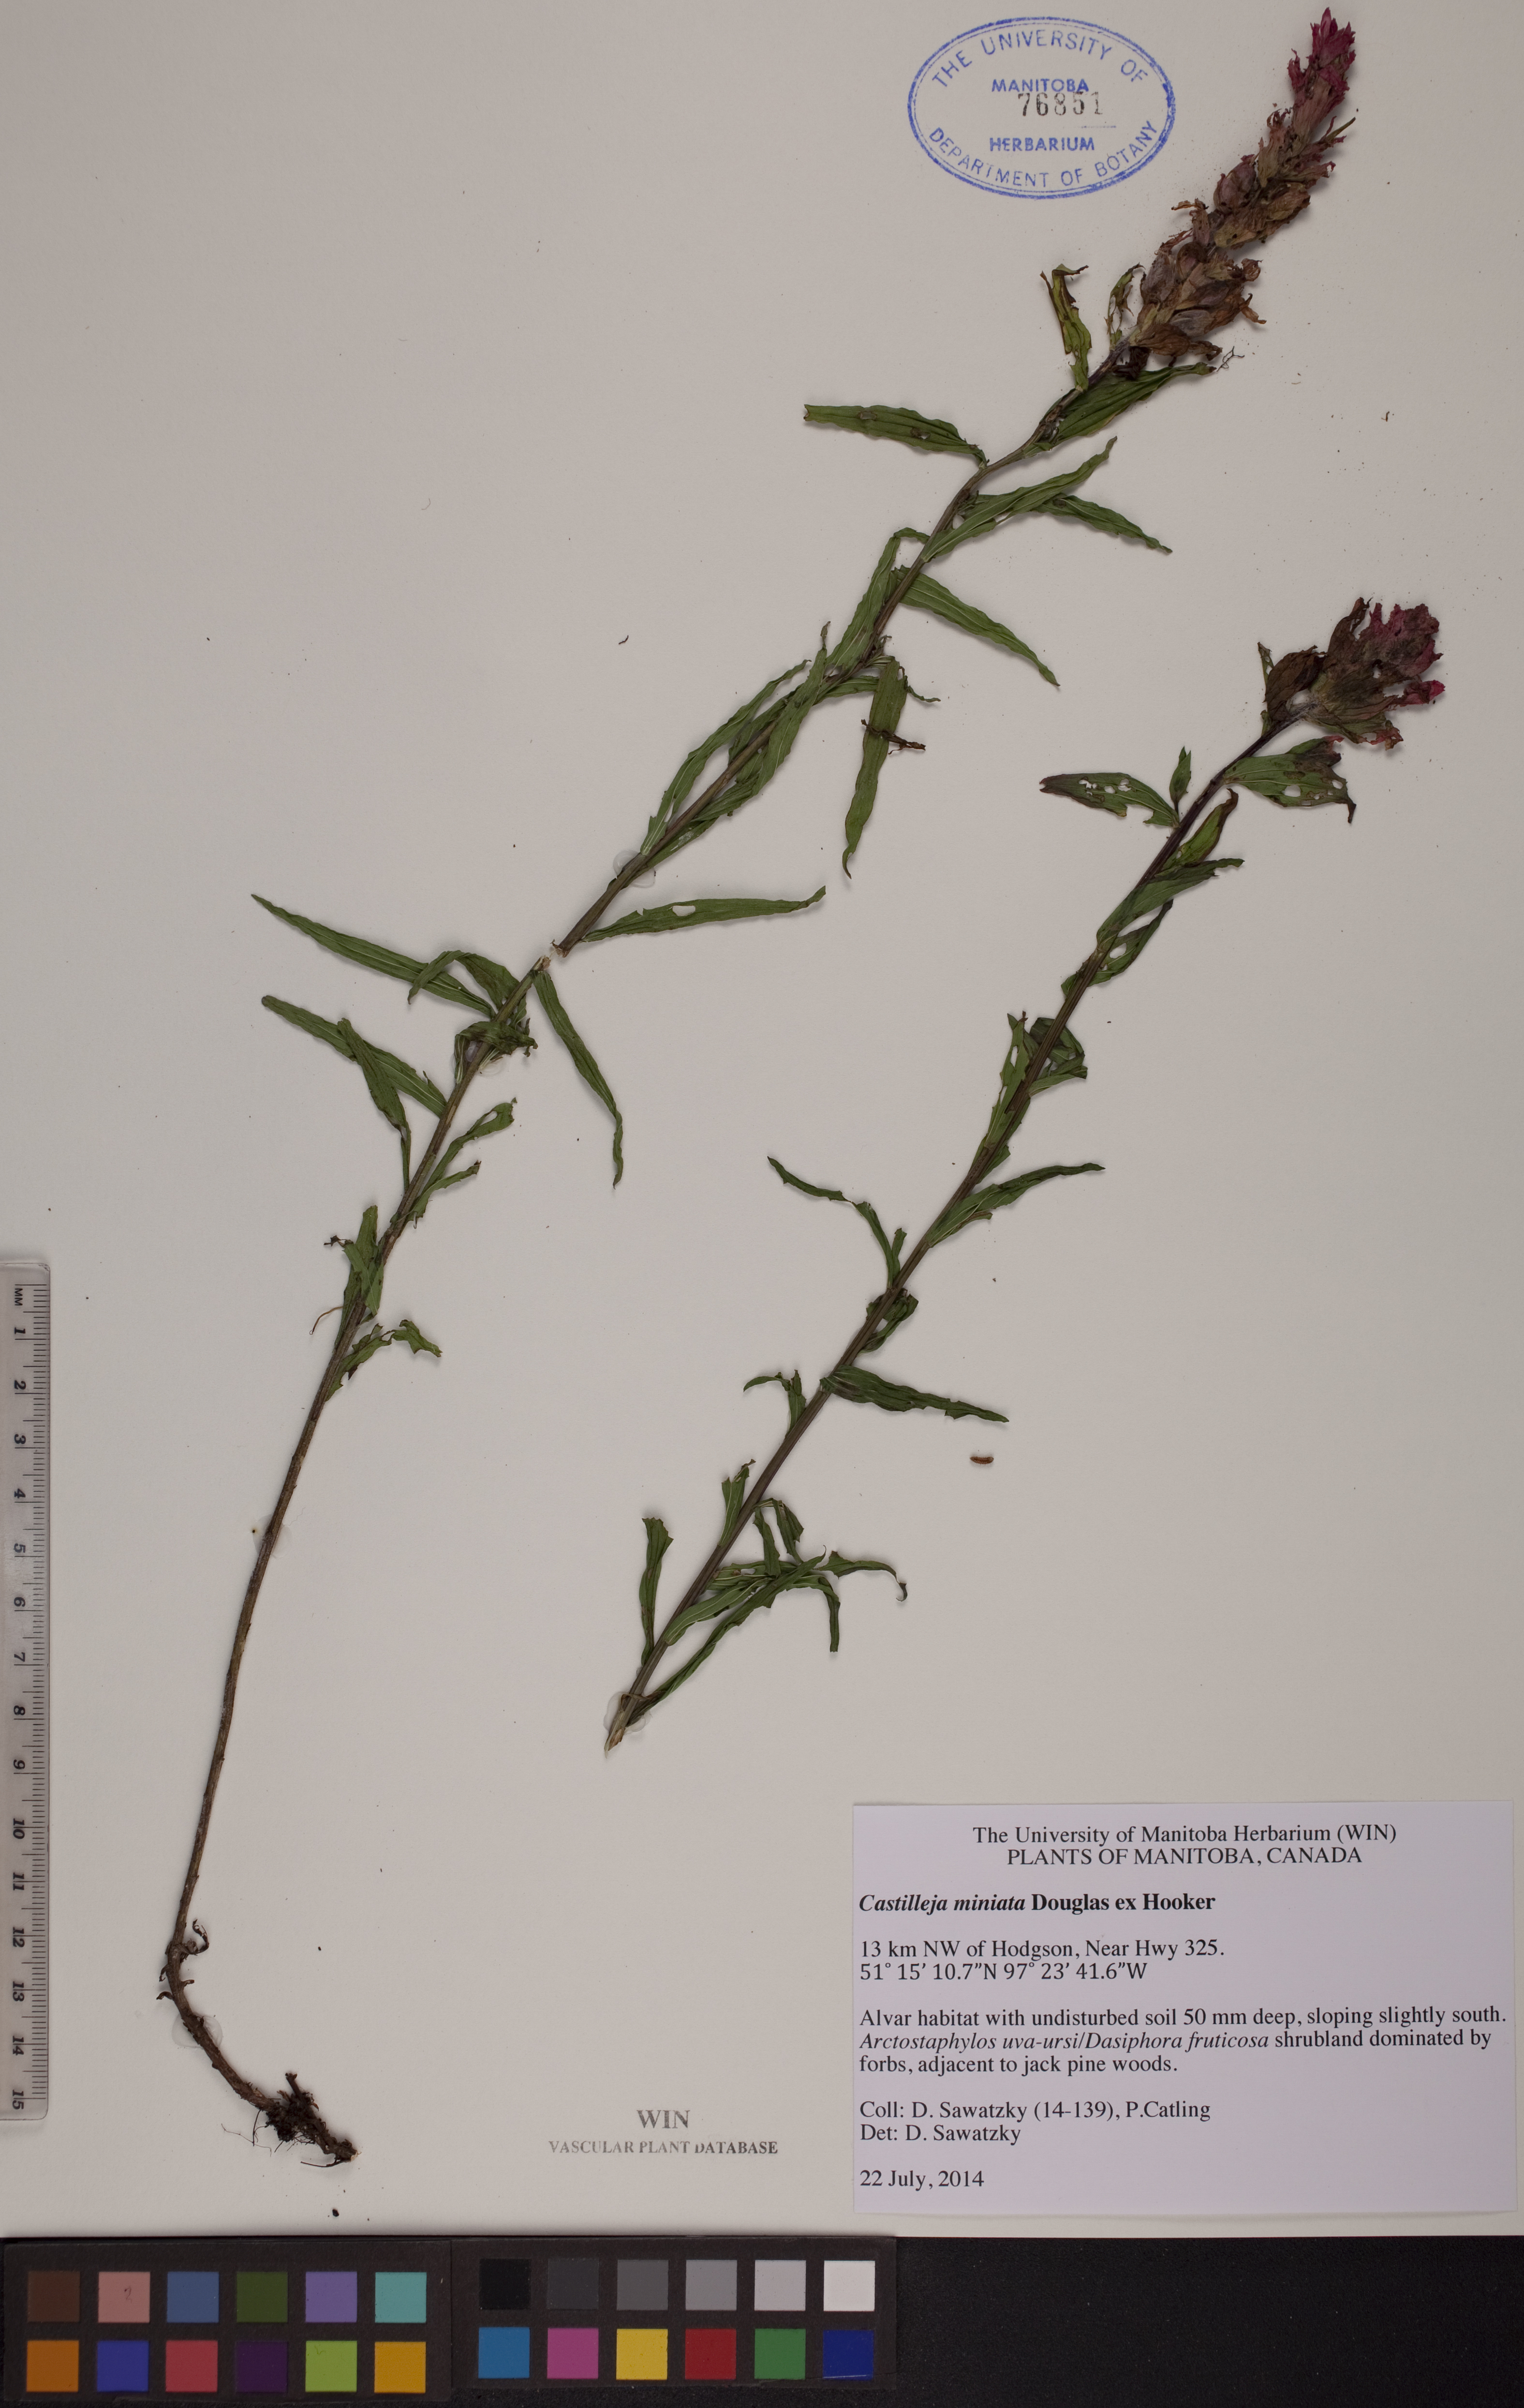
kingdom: Plantae
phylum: Tracheophyta
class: Magnoliopsida
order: Lamiales
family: Orobanchaceae
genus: Castilleja
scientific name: Castilleja miniata
